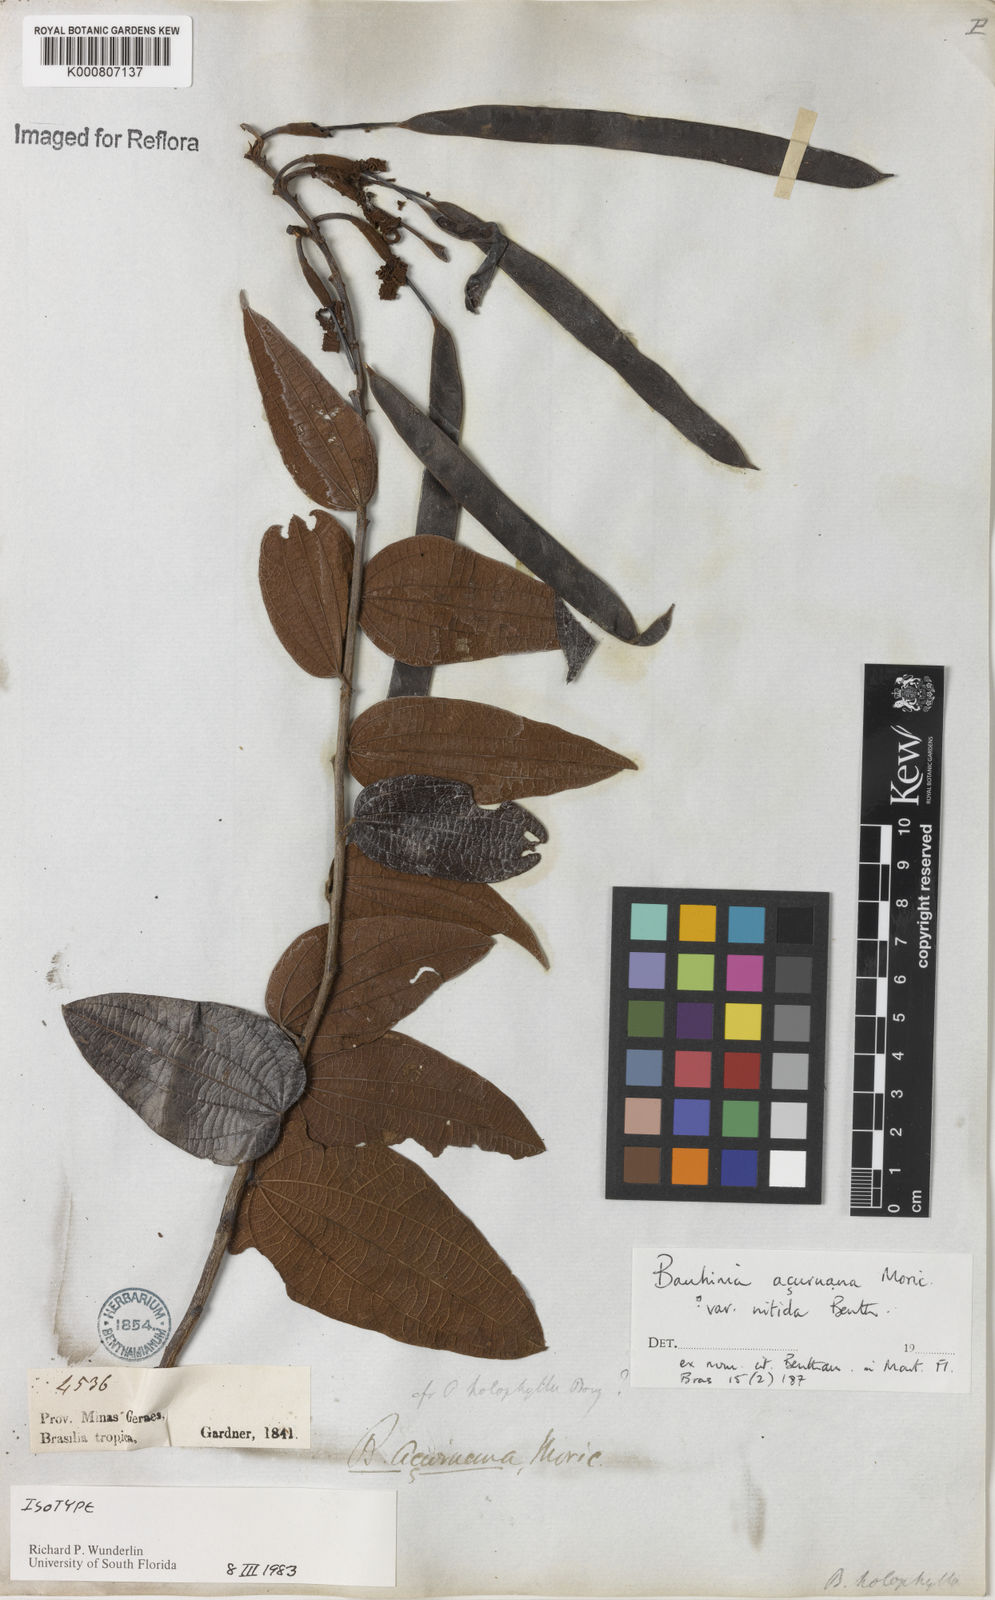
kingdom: Plantae
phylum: Tracheophyta
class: Magnoliopsida
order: Fabales
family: Fabaceae
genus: Bauhinia
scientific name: Bauhinia acuruana
